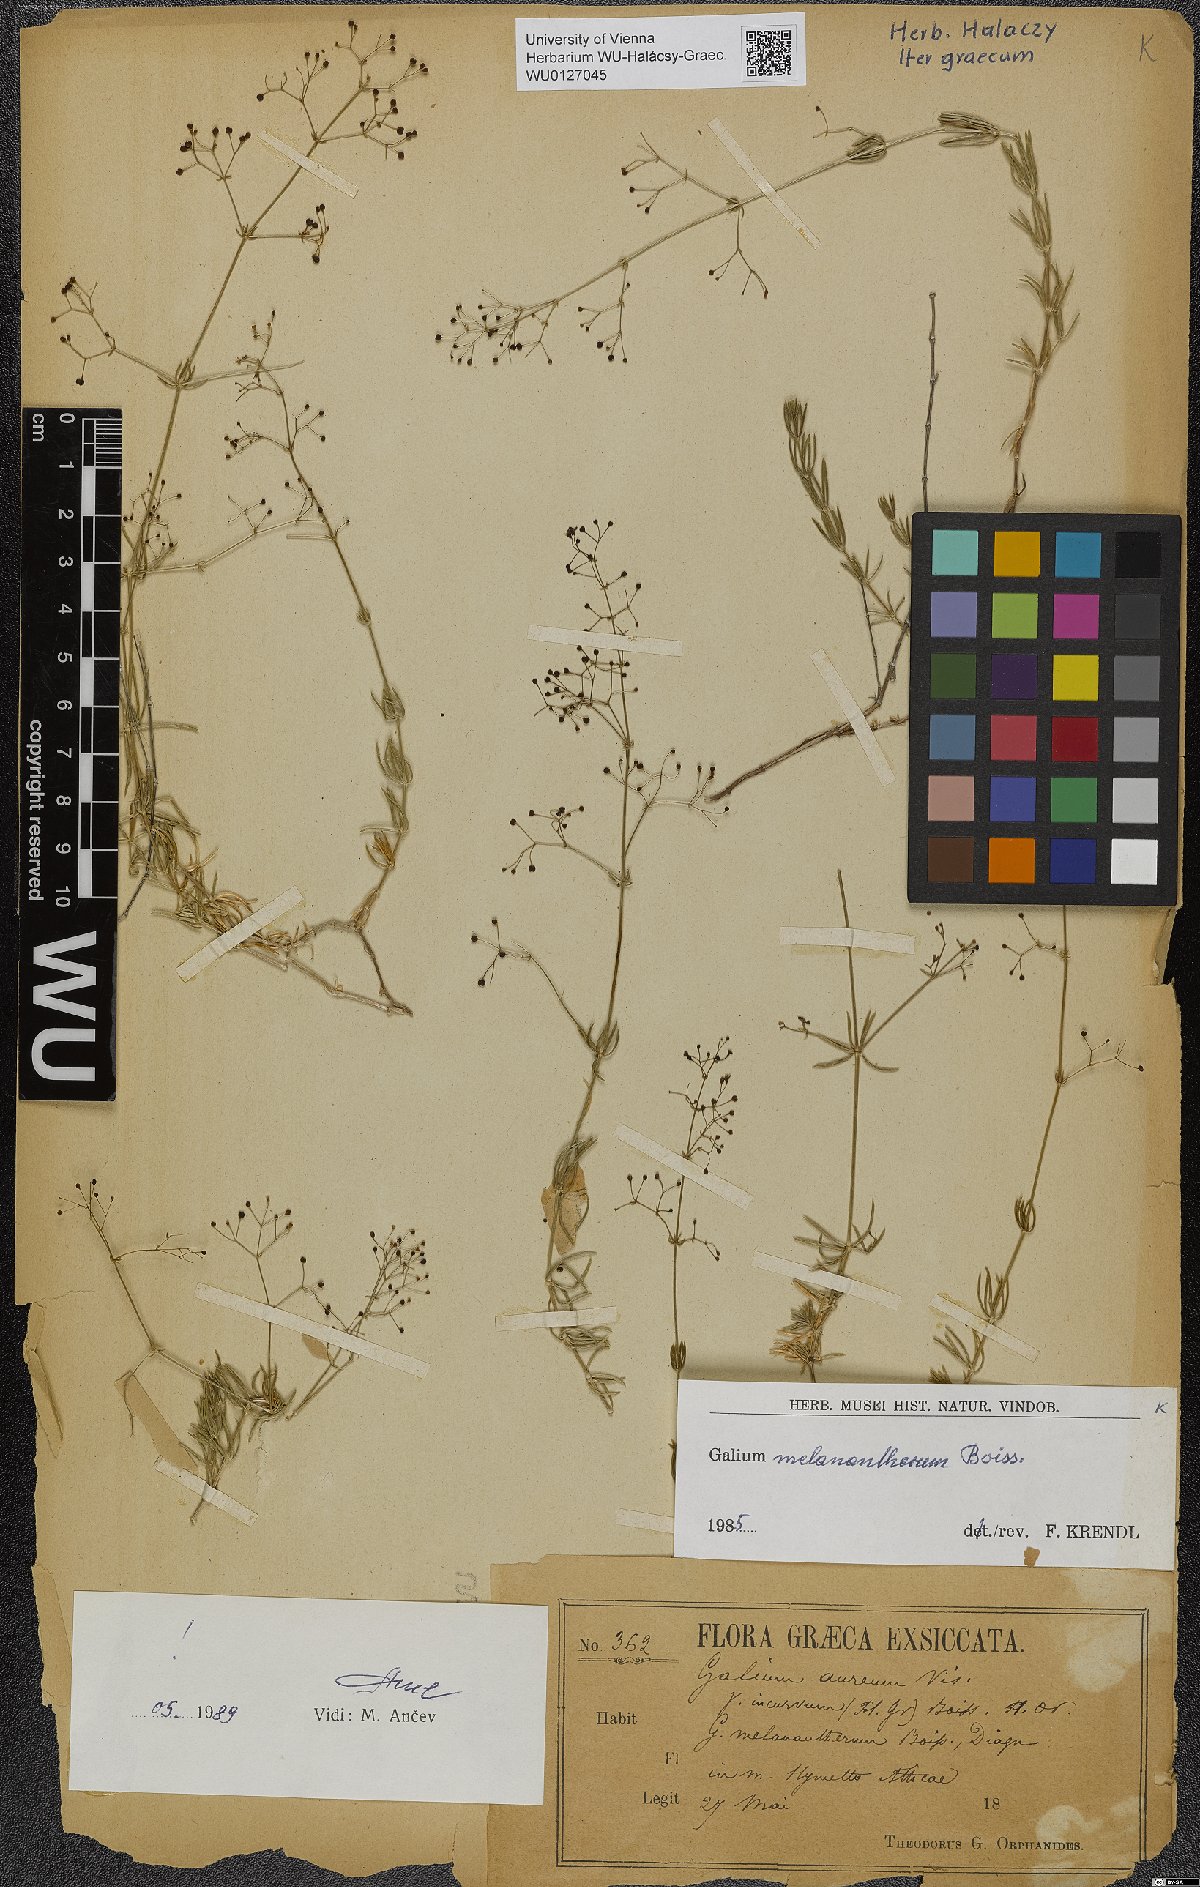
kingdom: Plantae
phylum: Tracheophyta
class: Magnoliopsida
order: Gentianales
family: Rubiaceae
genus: Galium
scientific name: Galium melanantherum
